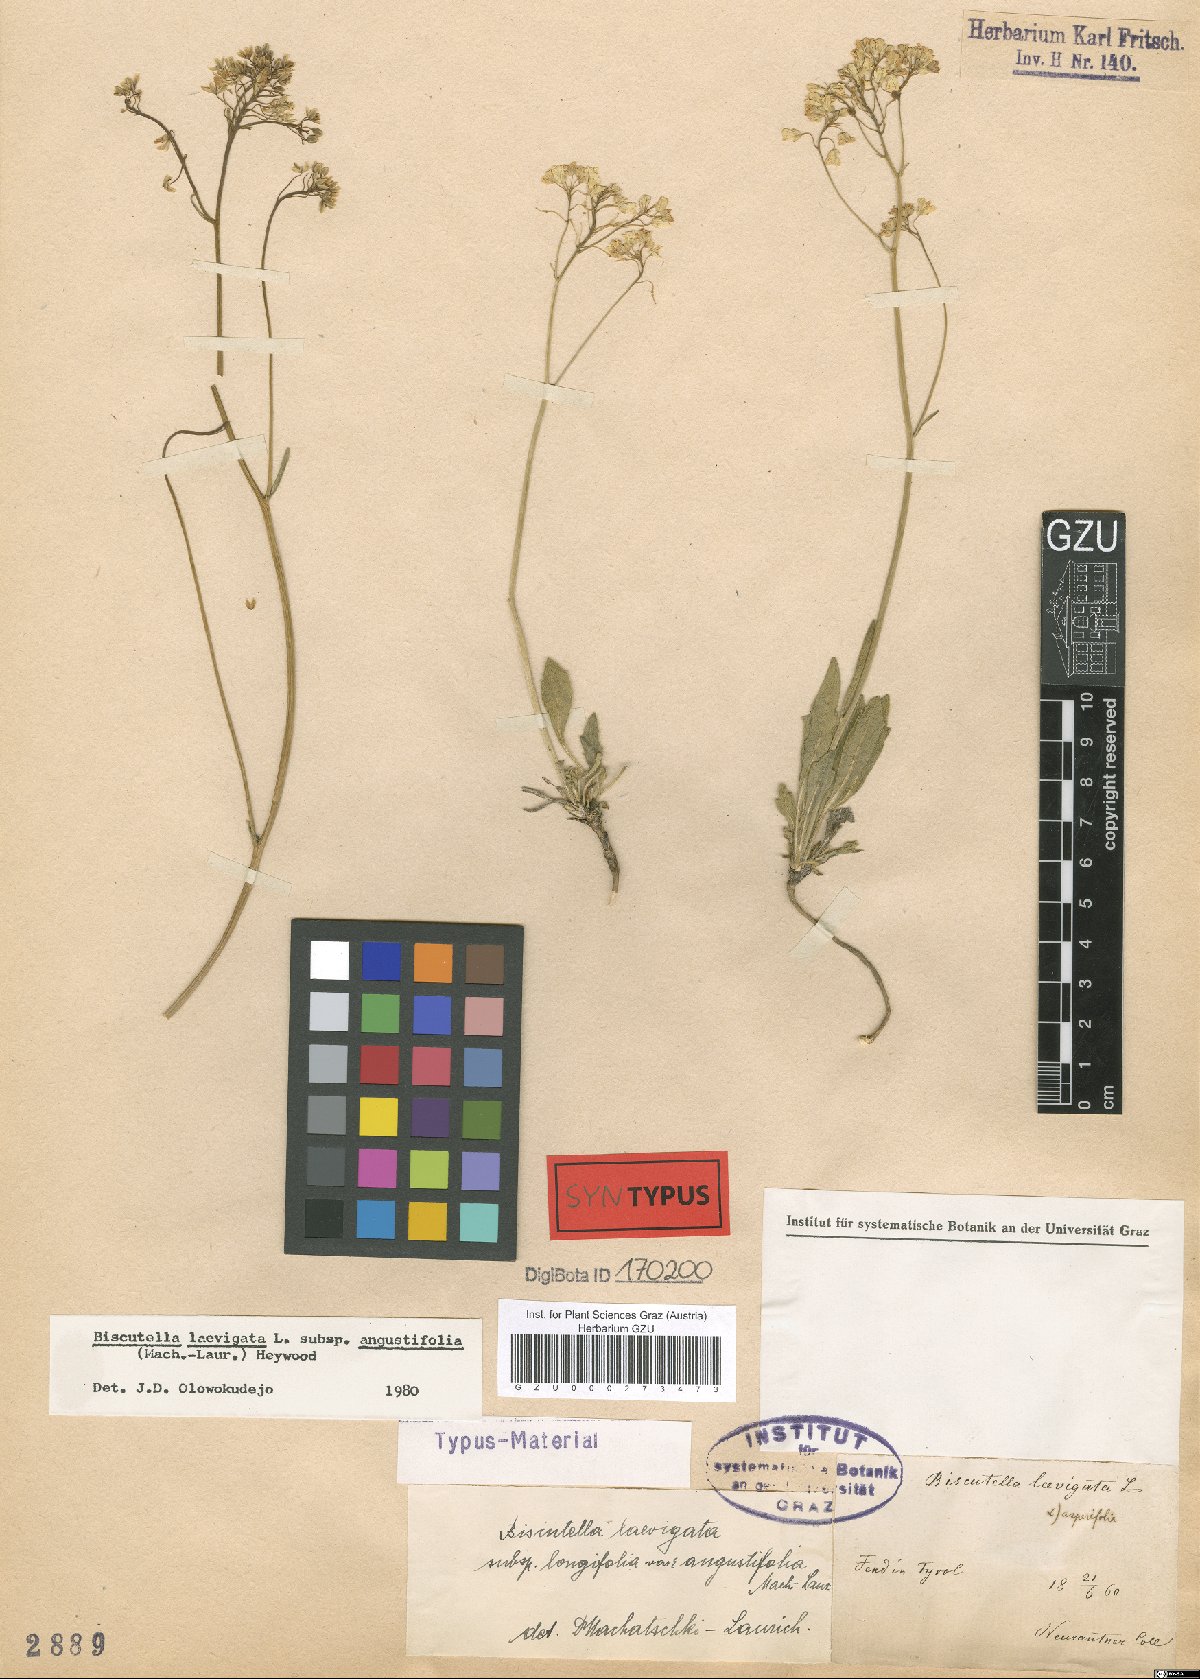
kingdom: Plantae
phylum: Tracheophyta
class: Magnoliopsida
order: Brassicales
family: Brassicaceae
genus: Biscutella
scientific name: Biscutella laevigata
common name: Buckler mustard
